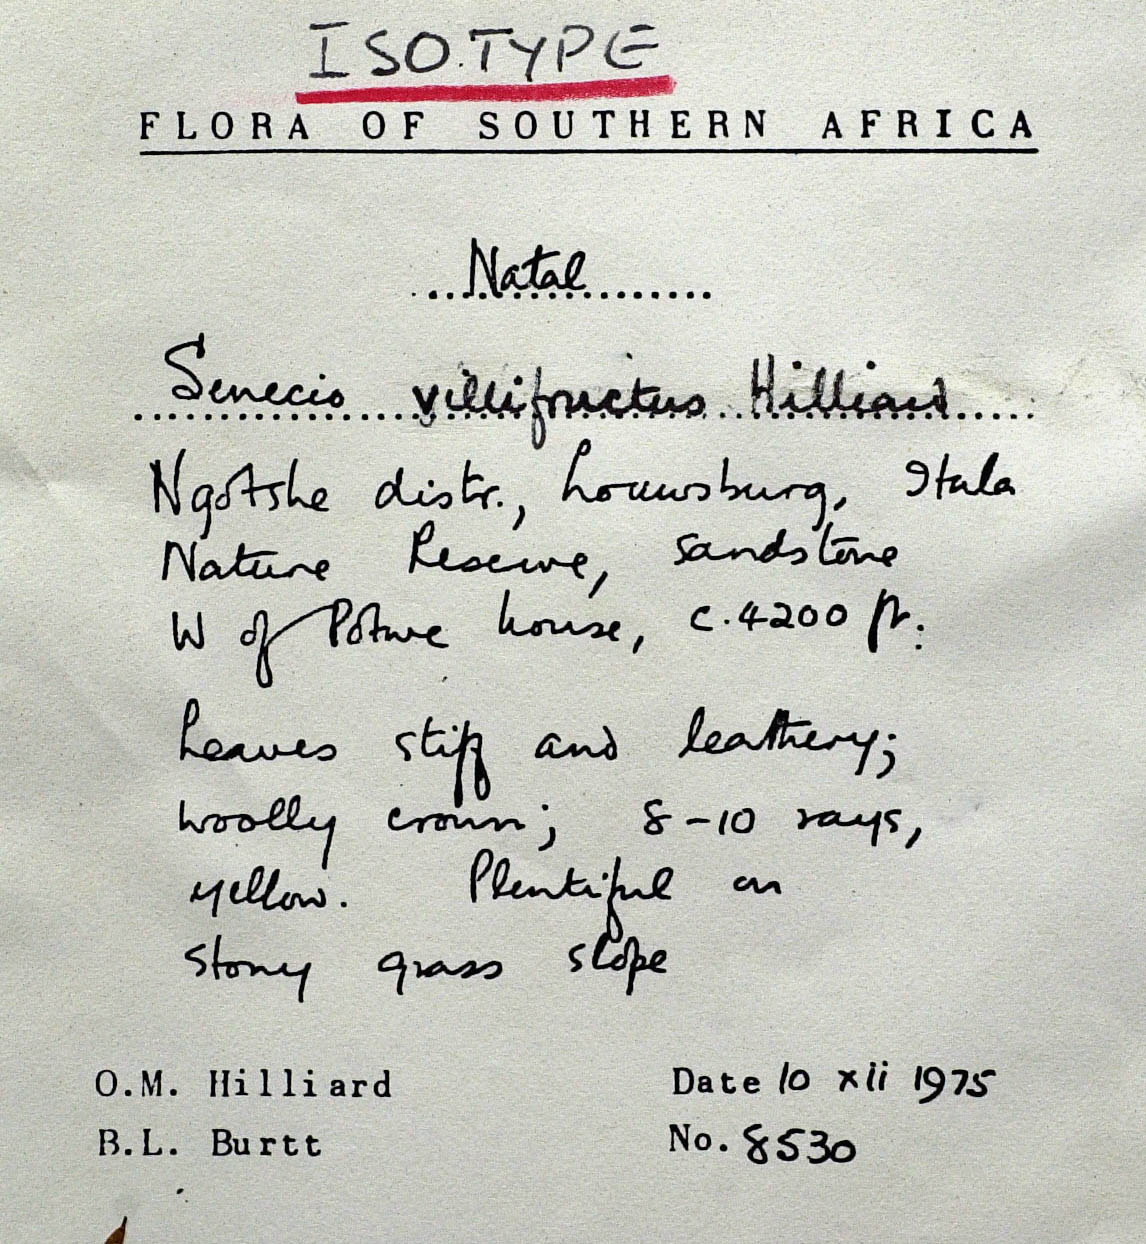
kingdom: Plantae
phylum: Tracheophyta
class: Magnoliopsida
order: Asterales
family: Asteraceae
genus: Senecio
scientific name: Senecio villifructus
